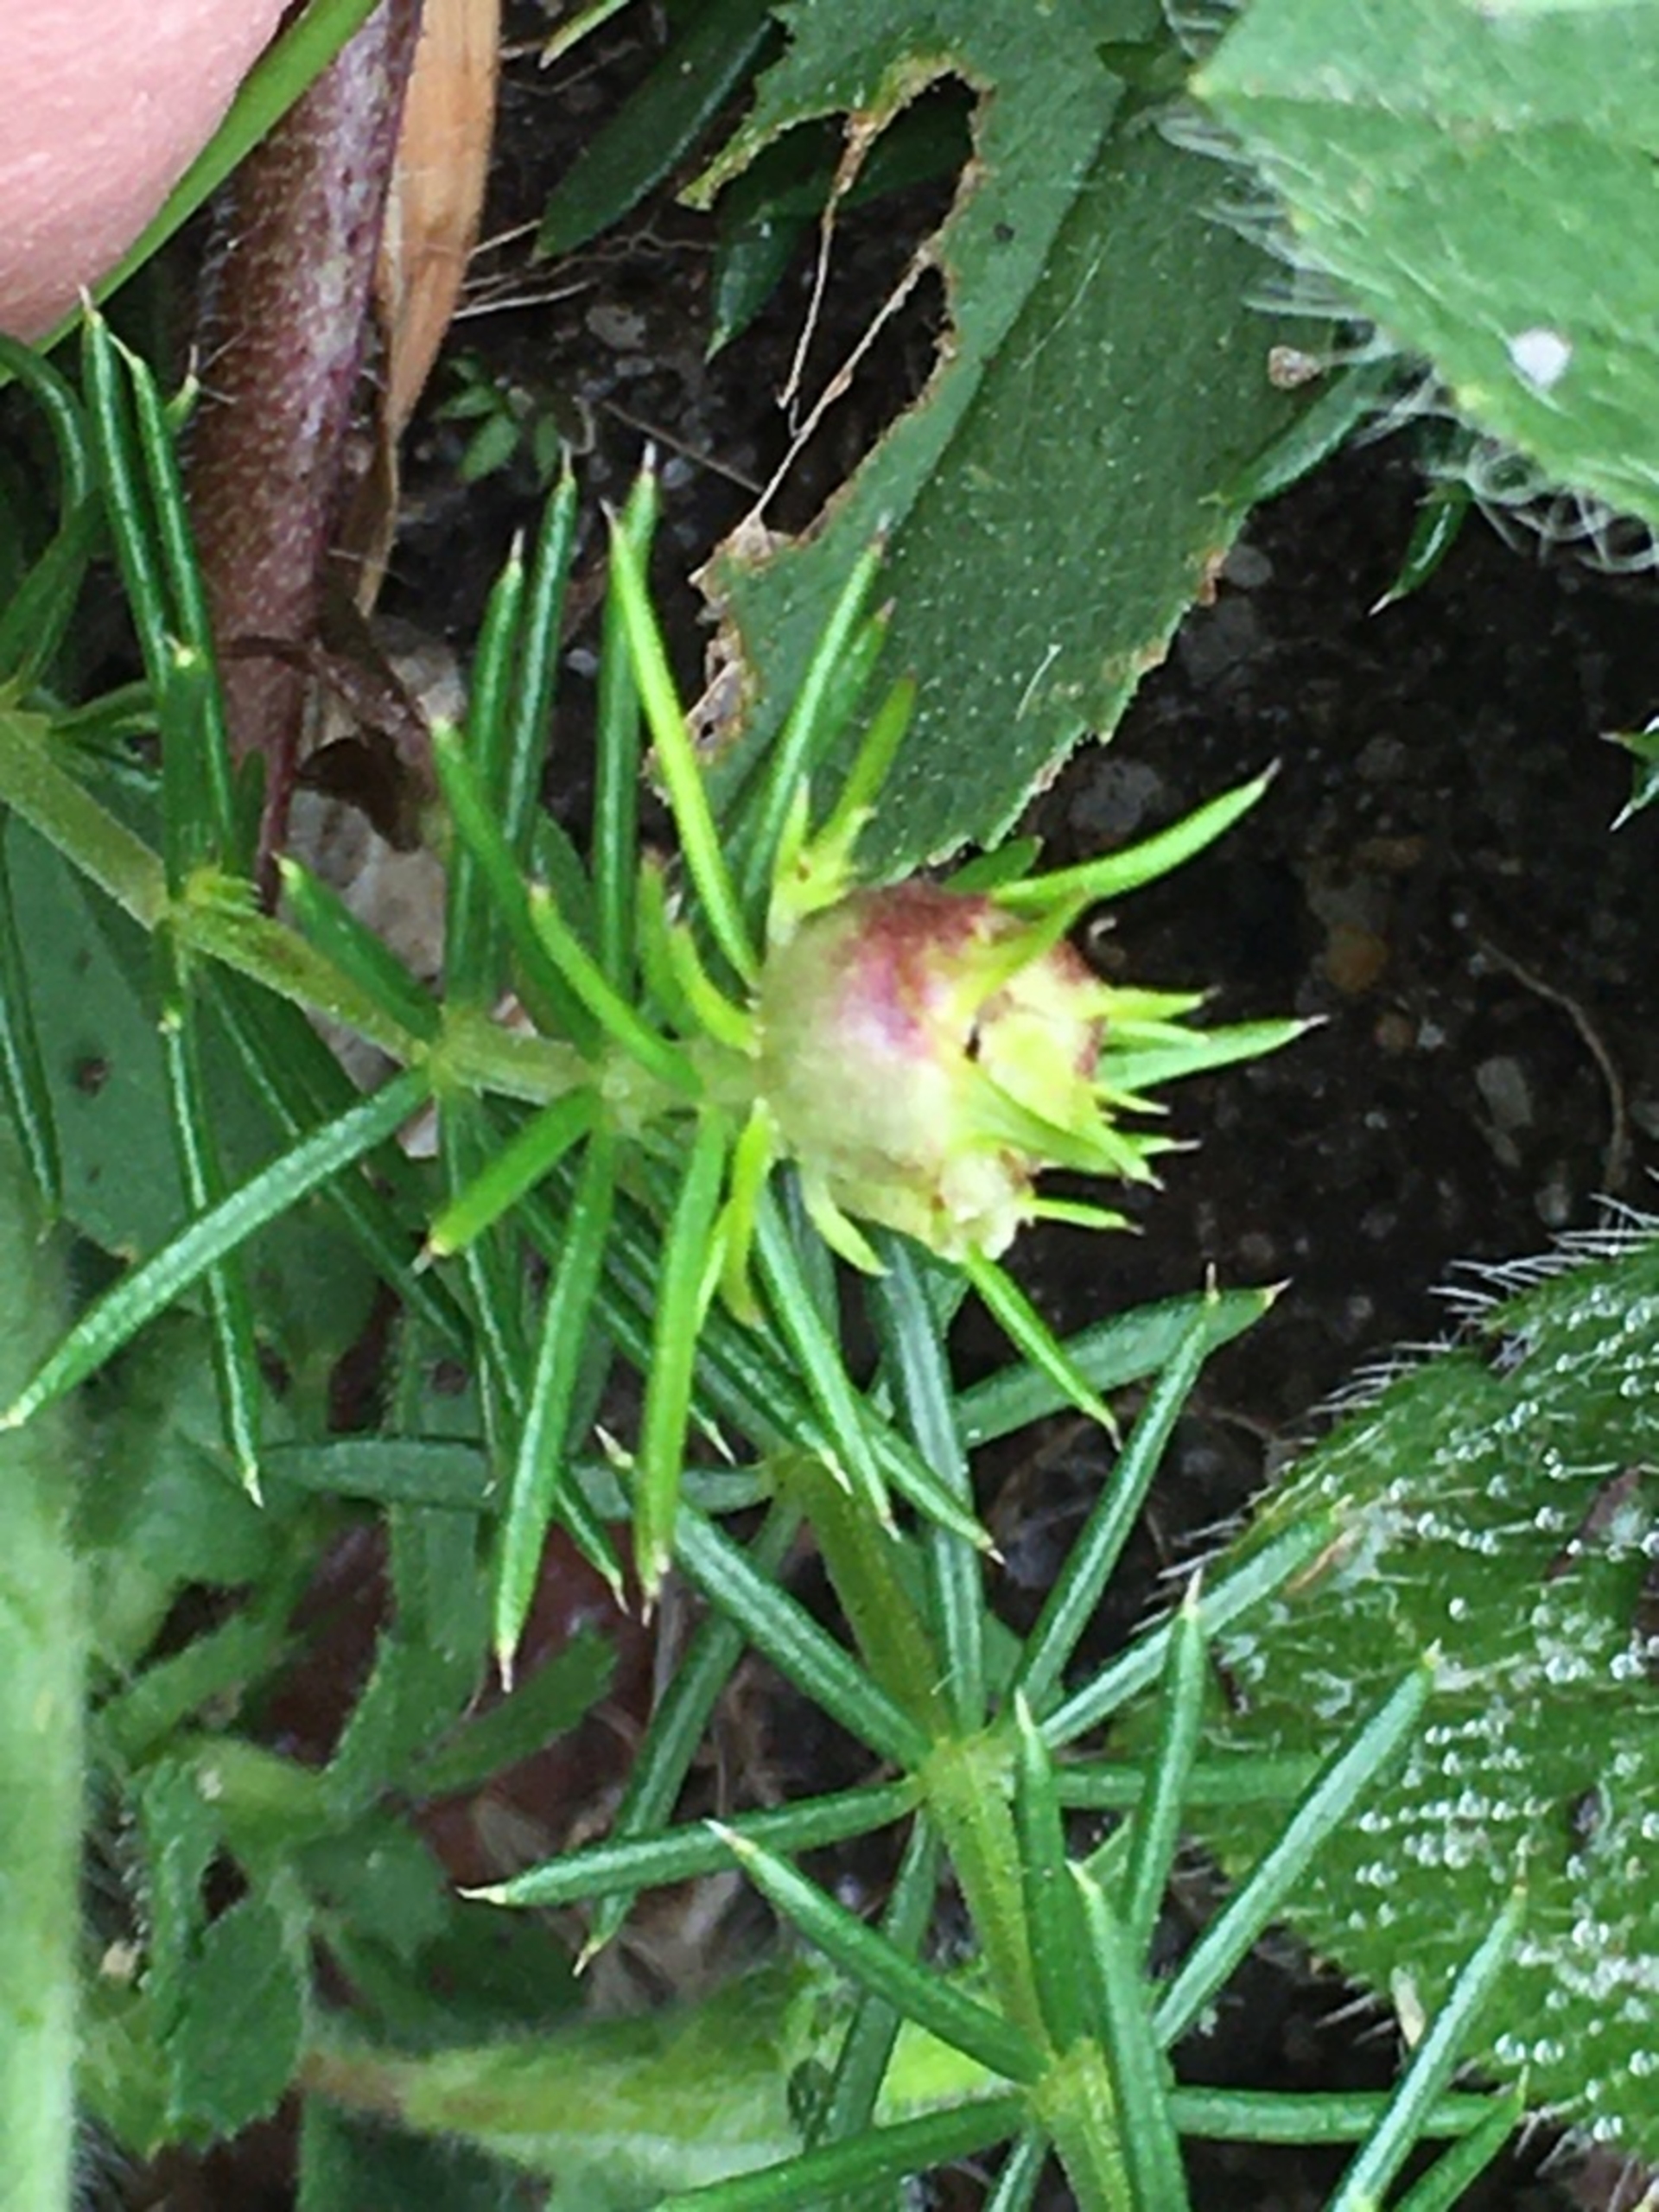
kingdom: Animalia
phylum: Arthropoda
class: Insecta
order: Diptera
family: Cecidomyiidae
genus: Geocrypta
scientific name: Geocrypta galii
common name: Snerrestængelgalmyg
